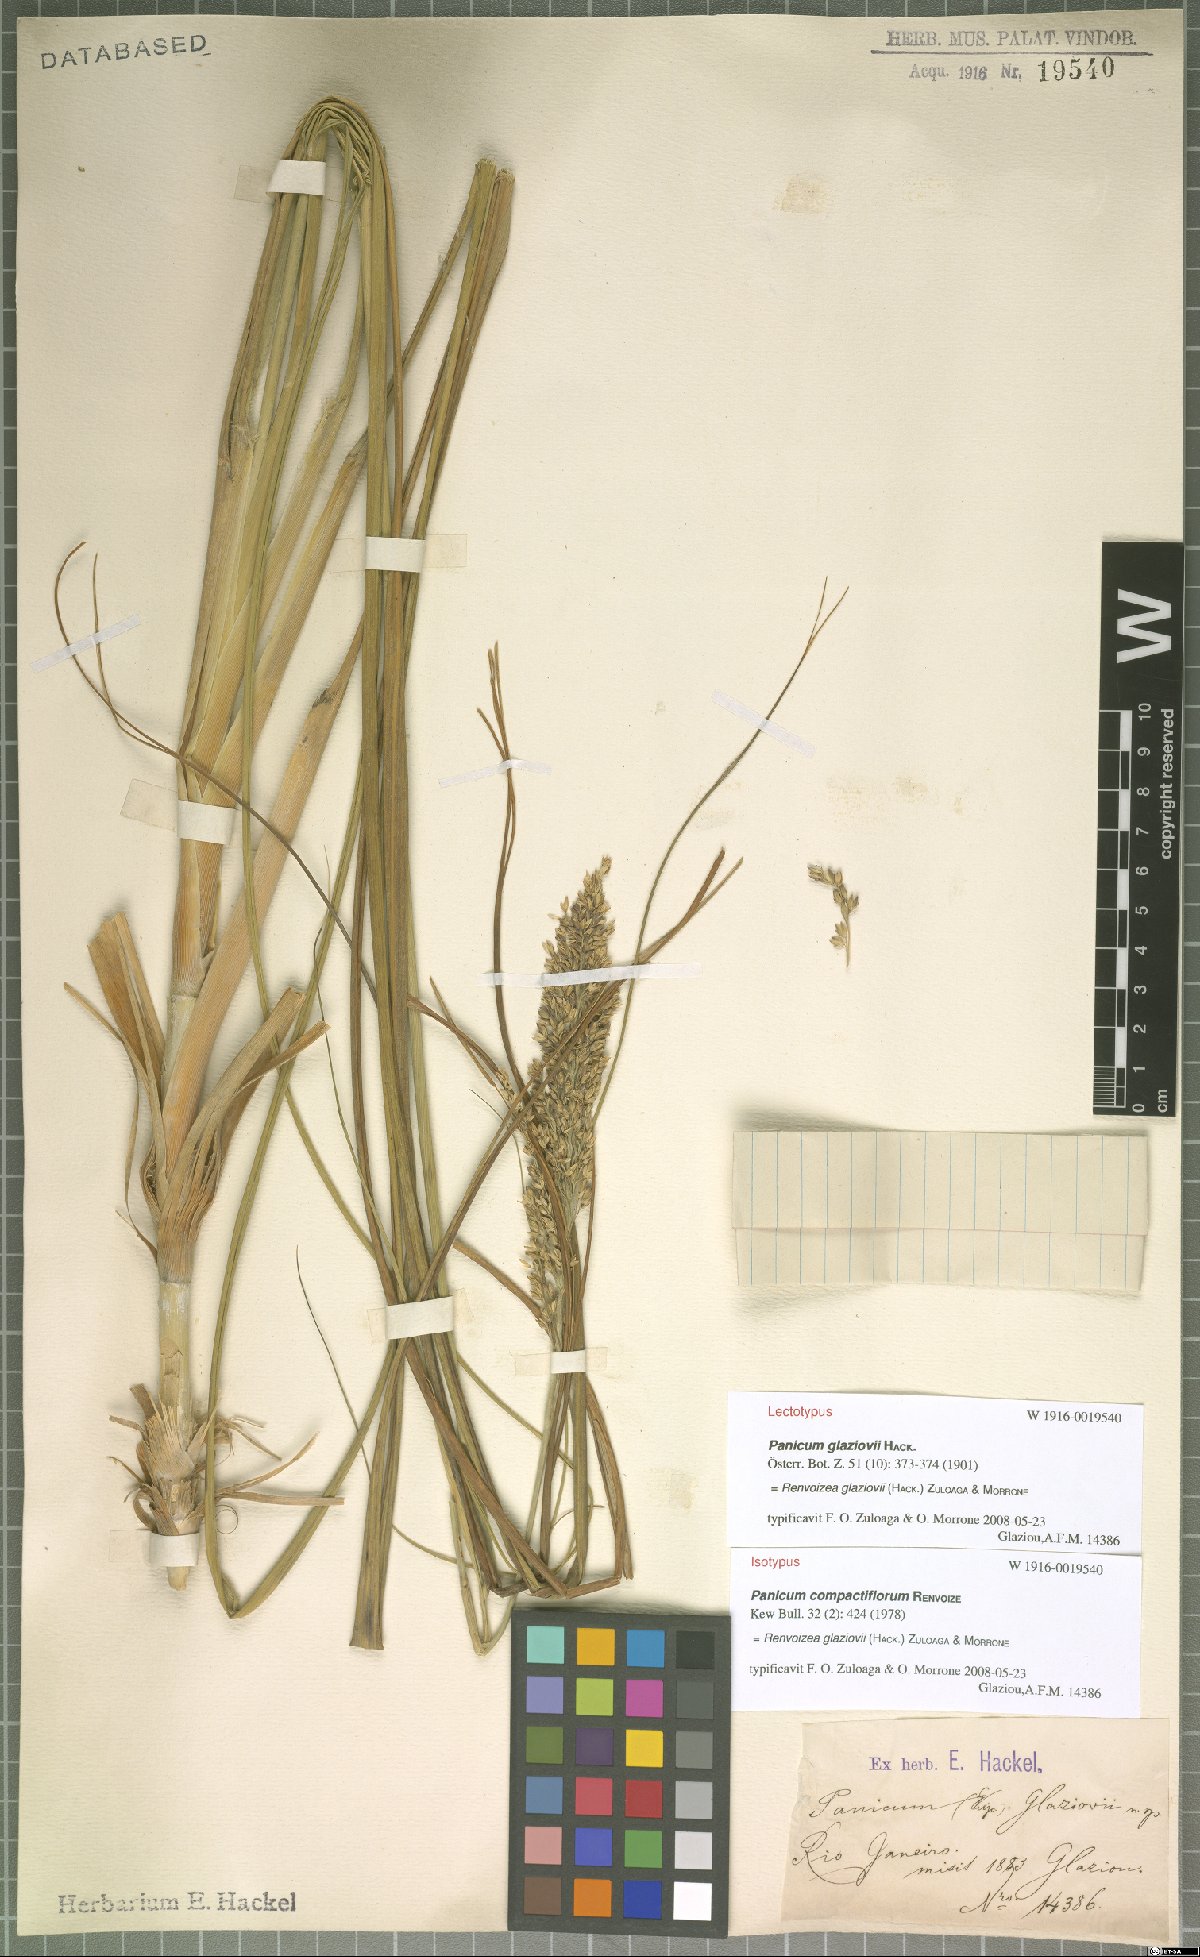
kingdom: Plantae
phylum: Tracheophyta
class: Liliopsida
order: Poales
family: Poaceae
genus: Renvoizea
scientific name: Renvoizea glaziovii
